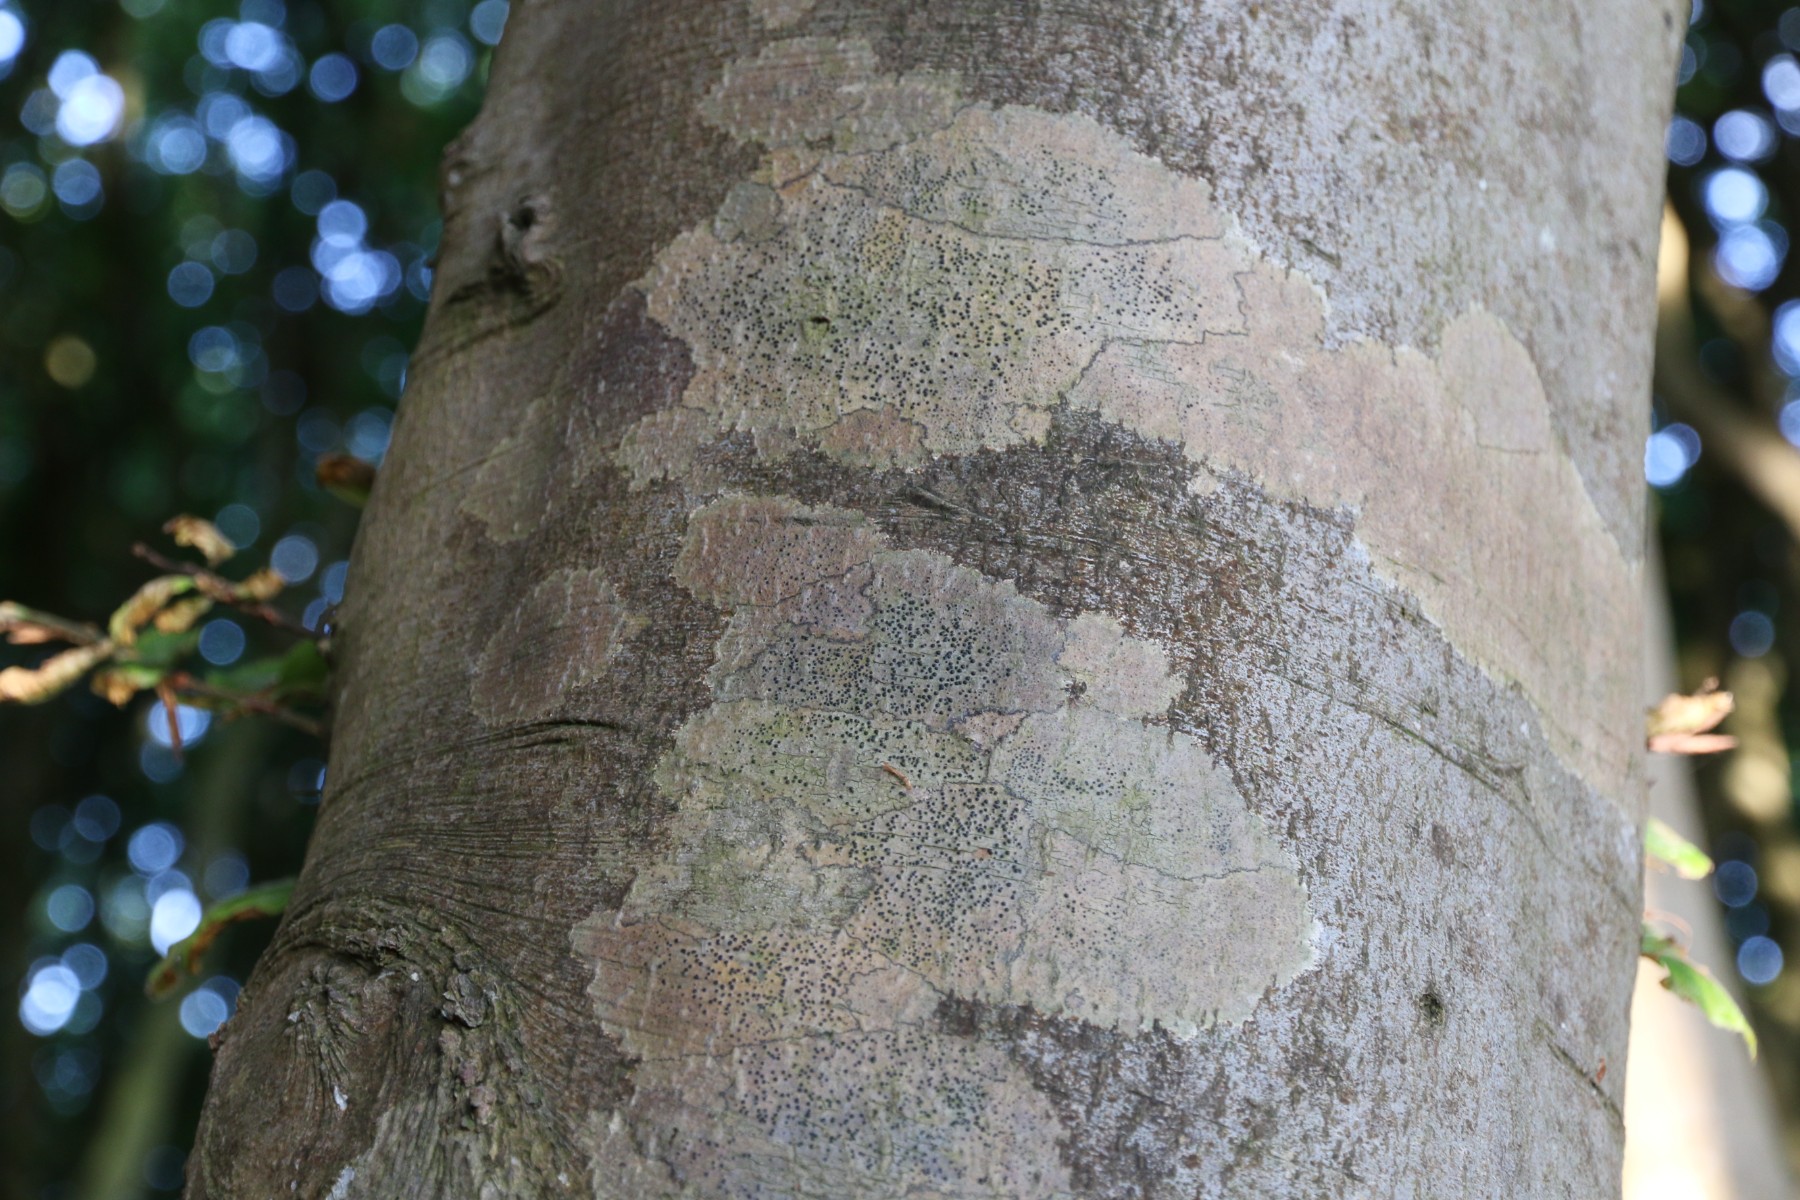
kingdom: Fungi
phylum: Ascomycota
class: Eurotiomycetes
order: Pyrenulales
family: Pyrenulaceae
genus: Pyrenula
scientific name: Pyrenula nitida
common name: glinsende kernelav
